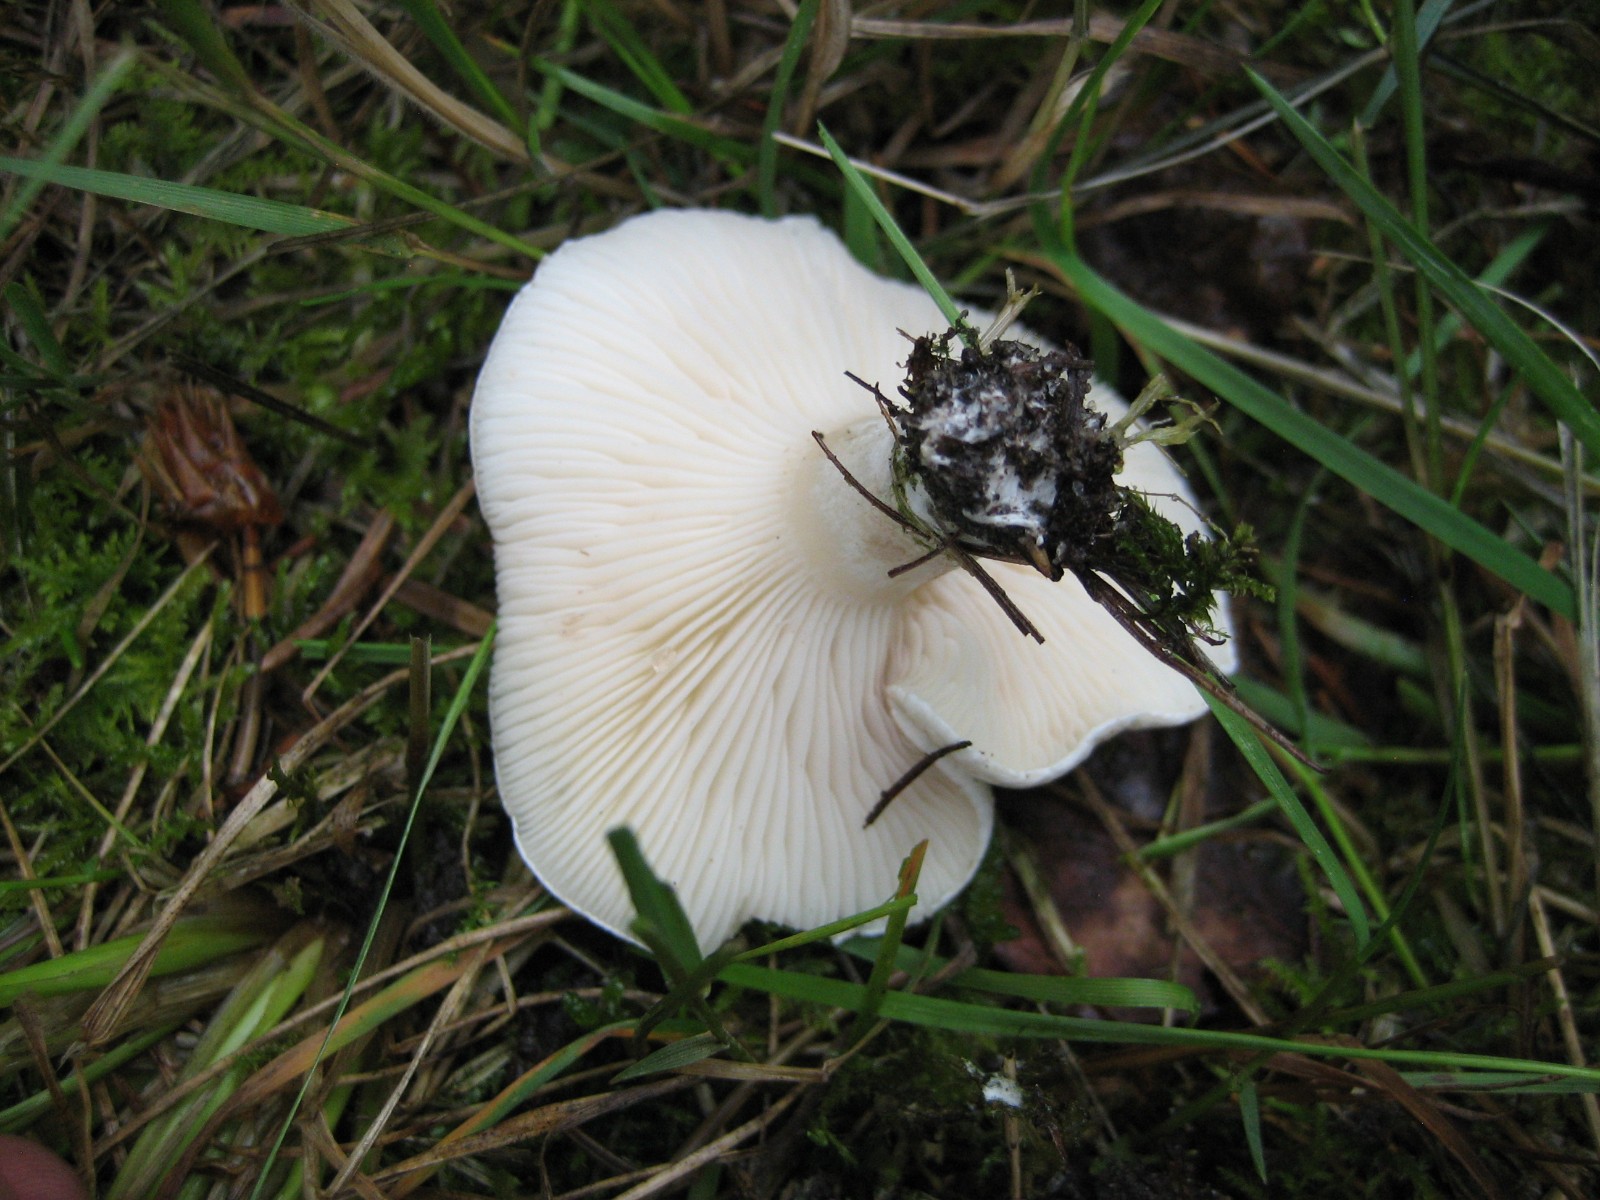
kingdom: Fungi
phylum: Basidiomycota
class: Agaricomycetes
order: Agaricales
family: Entolomataceae
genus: Clitopilus
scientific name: Clitopilus prunulus
